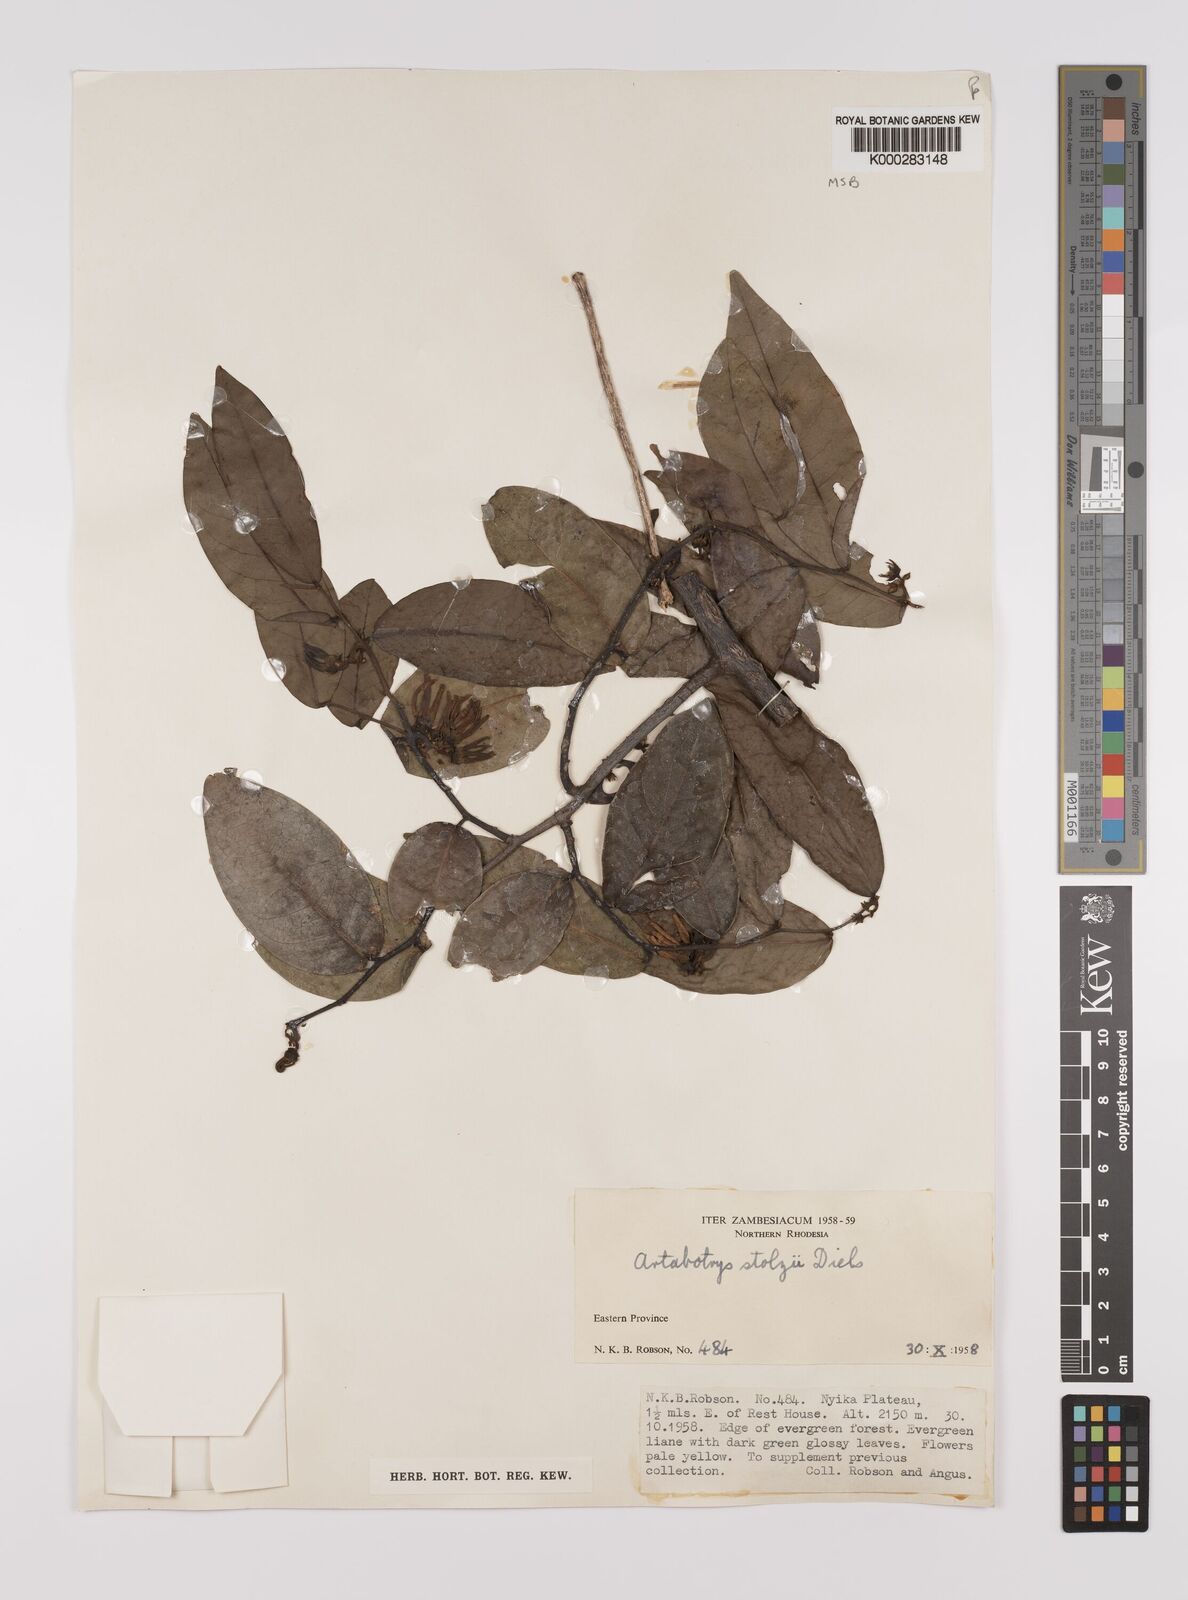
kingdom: Plantae
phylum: Tracheophyta
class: Magnoliopsida
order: Magnoliales
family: Annonaceae
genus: Artabotrys
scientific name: Artabotrys stolzii
